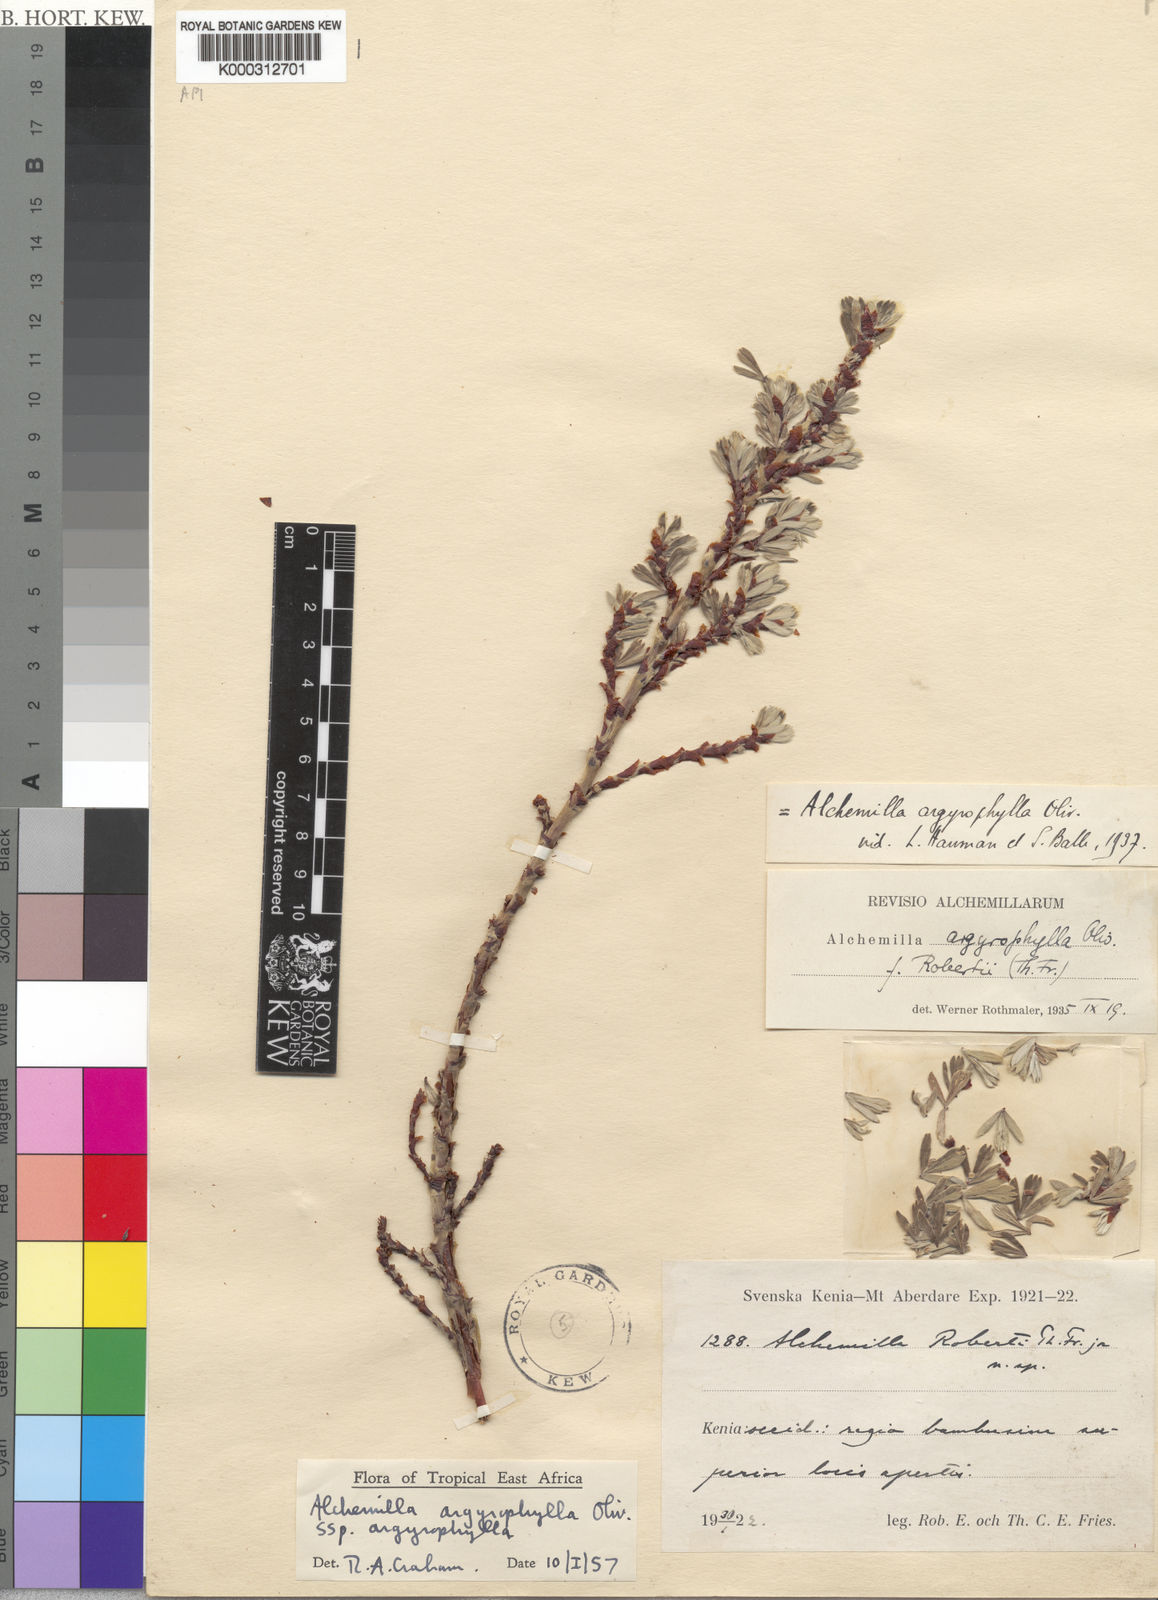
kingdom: Plantae
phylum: Tracheophyta
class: Magnoliopsida
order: Rosales
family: Rosaceae
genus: Alchemilla
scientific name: Alchemilla argyrophylla
